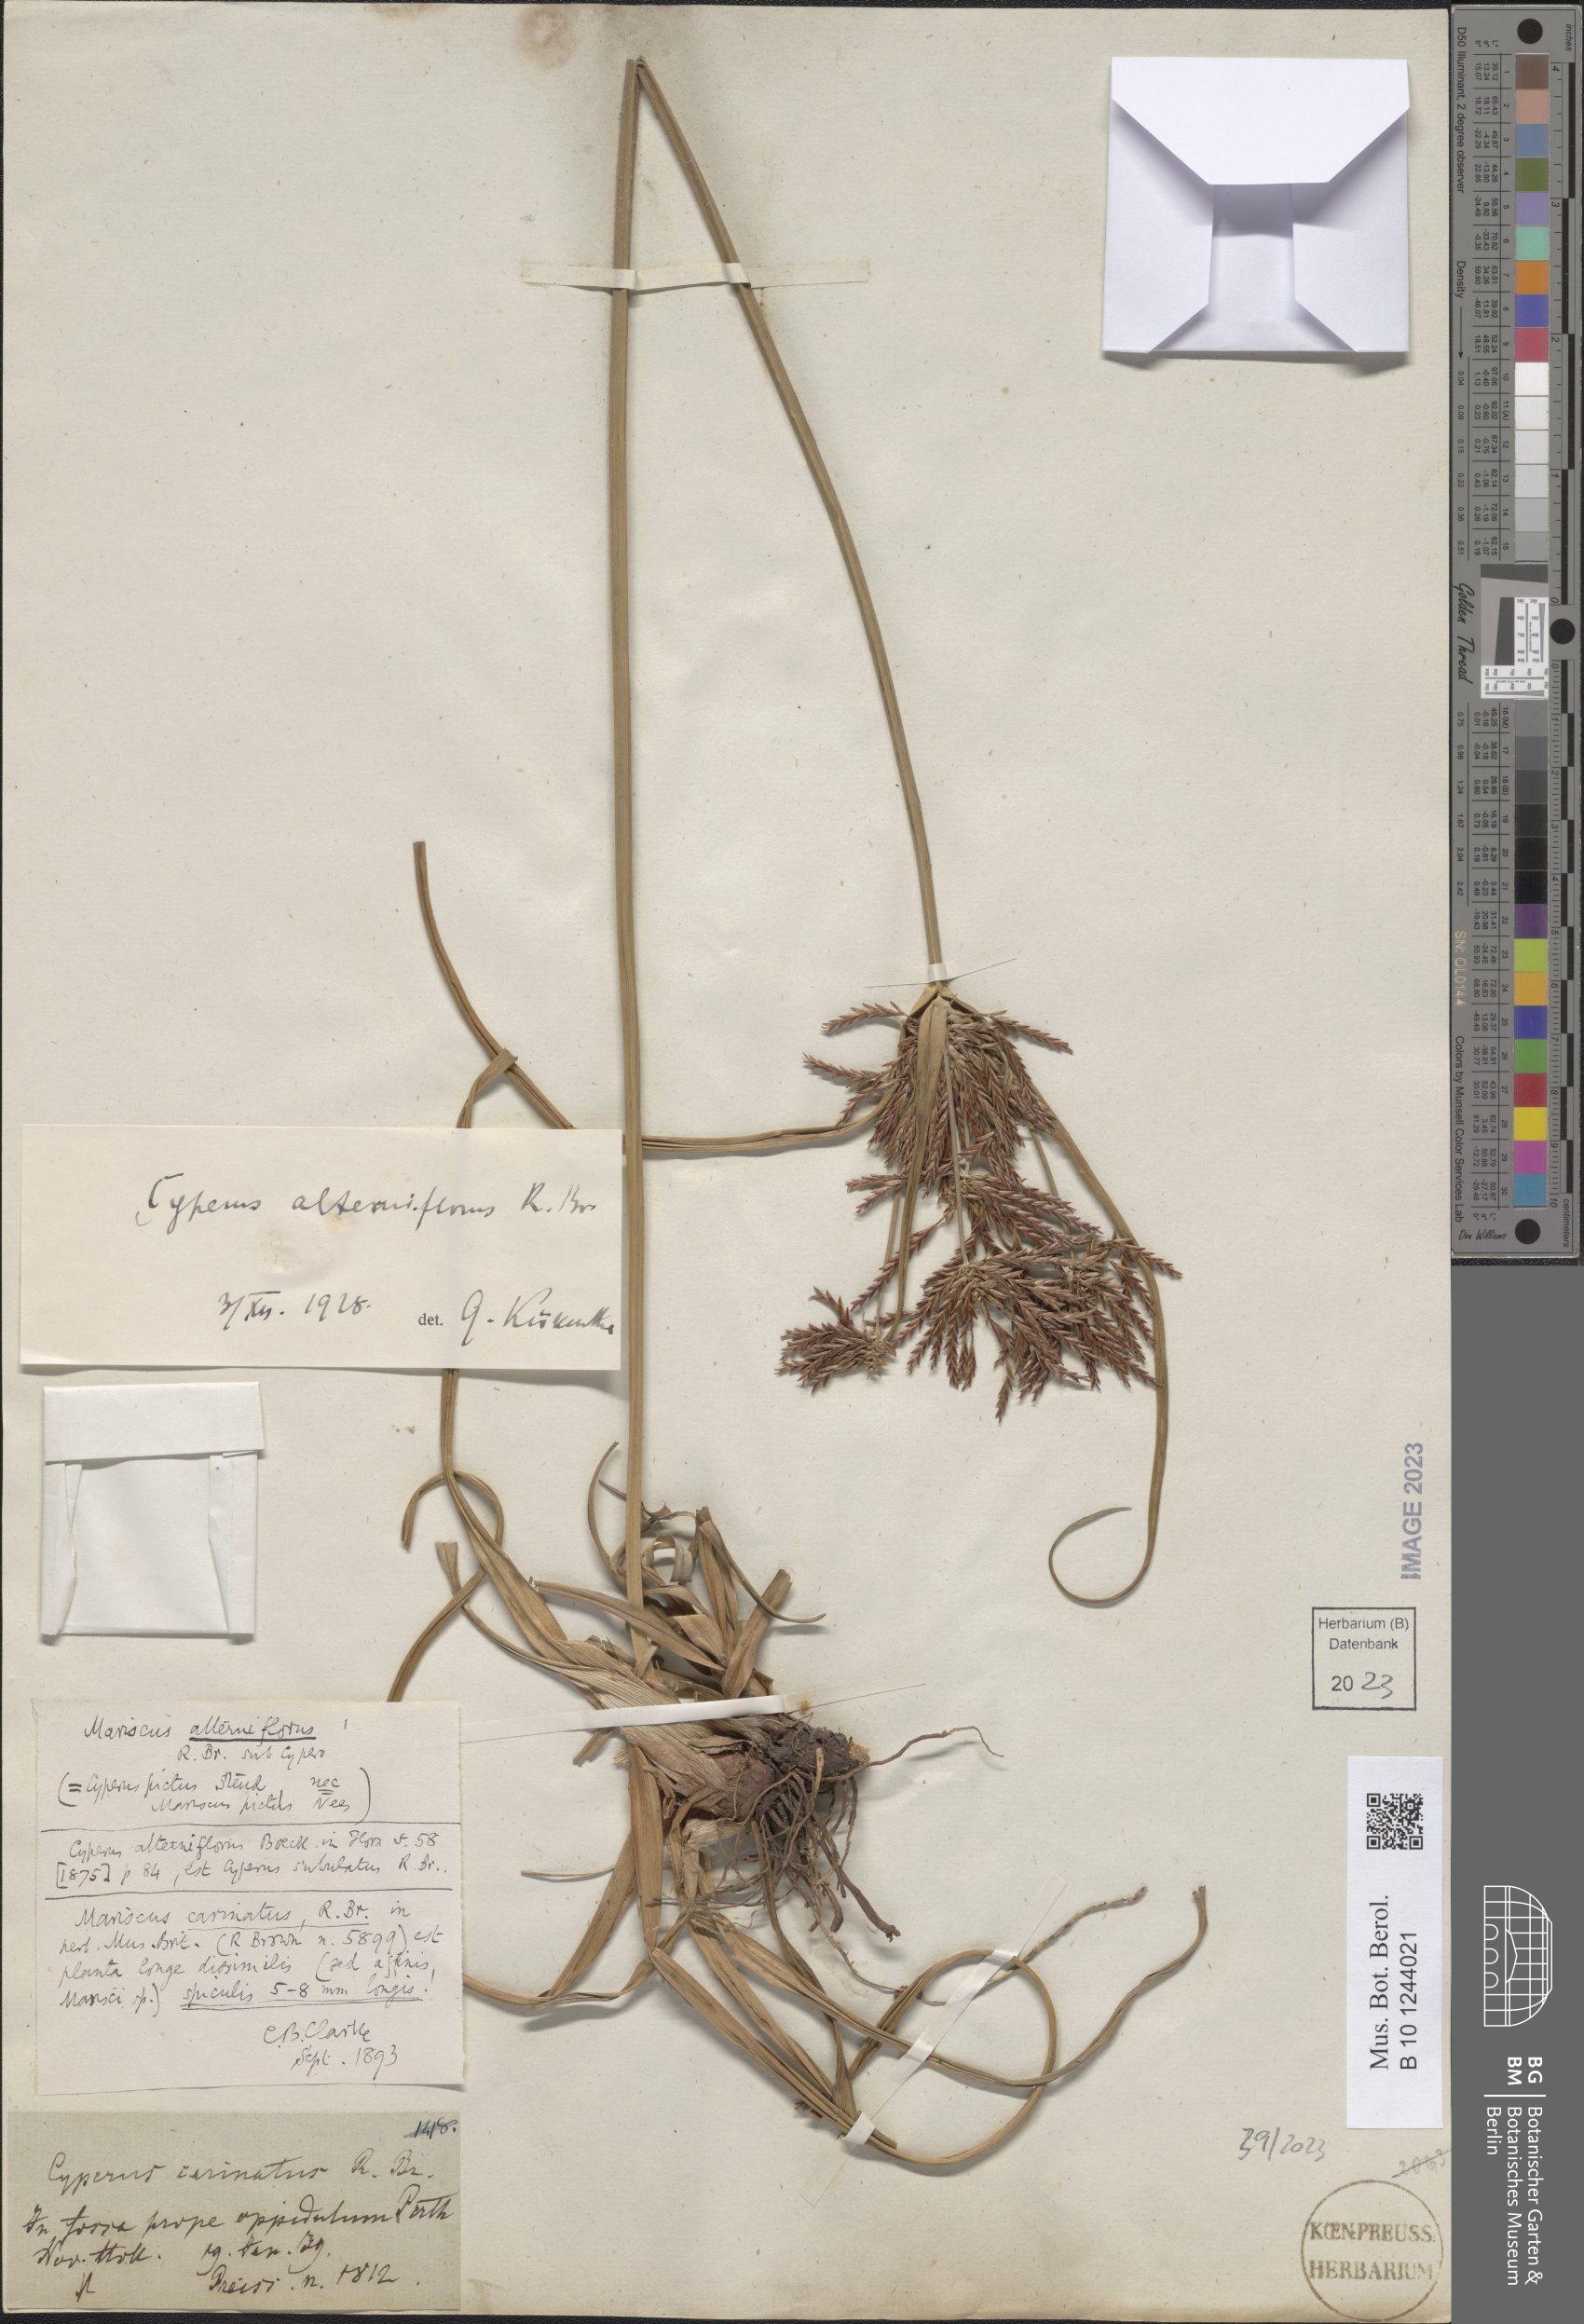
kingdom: Plantae
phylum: Tracheophyta
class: Liliopsida
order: Poales
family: Cyperaceae
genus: Cyperus
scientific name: Cyperus alterniflorus
